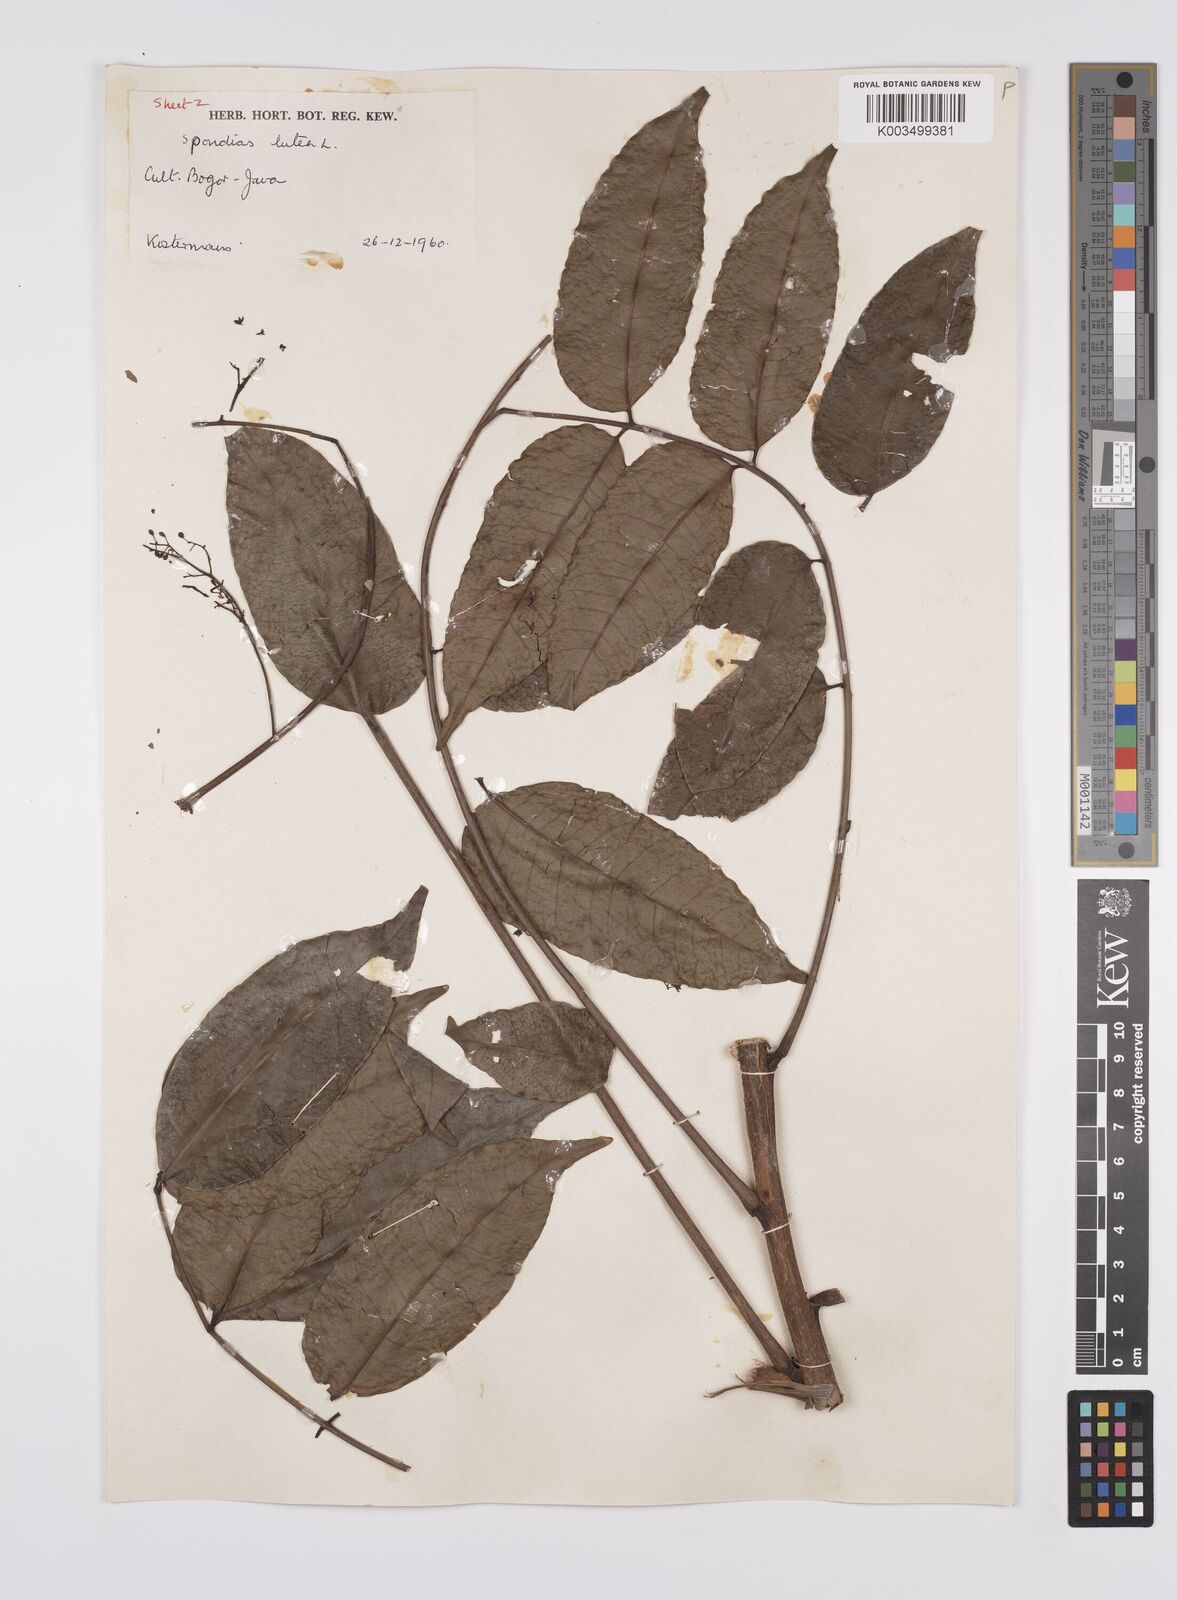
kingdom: Plantae
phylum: Tracheophyta
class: Magnoliopsida
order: Sapindales
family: Anacardiaceae
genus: Spondias
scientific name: Spondias mombin
